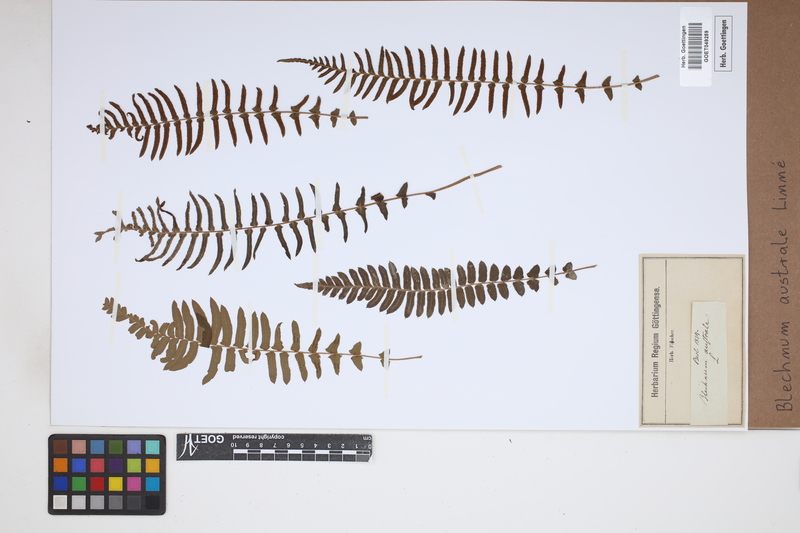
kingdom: Plantae
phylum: Tracheophyta
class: Polypodiopsida
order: Polypodiales
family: Blechnaceae
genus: Blechnum
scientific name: Blechnum australe
